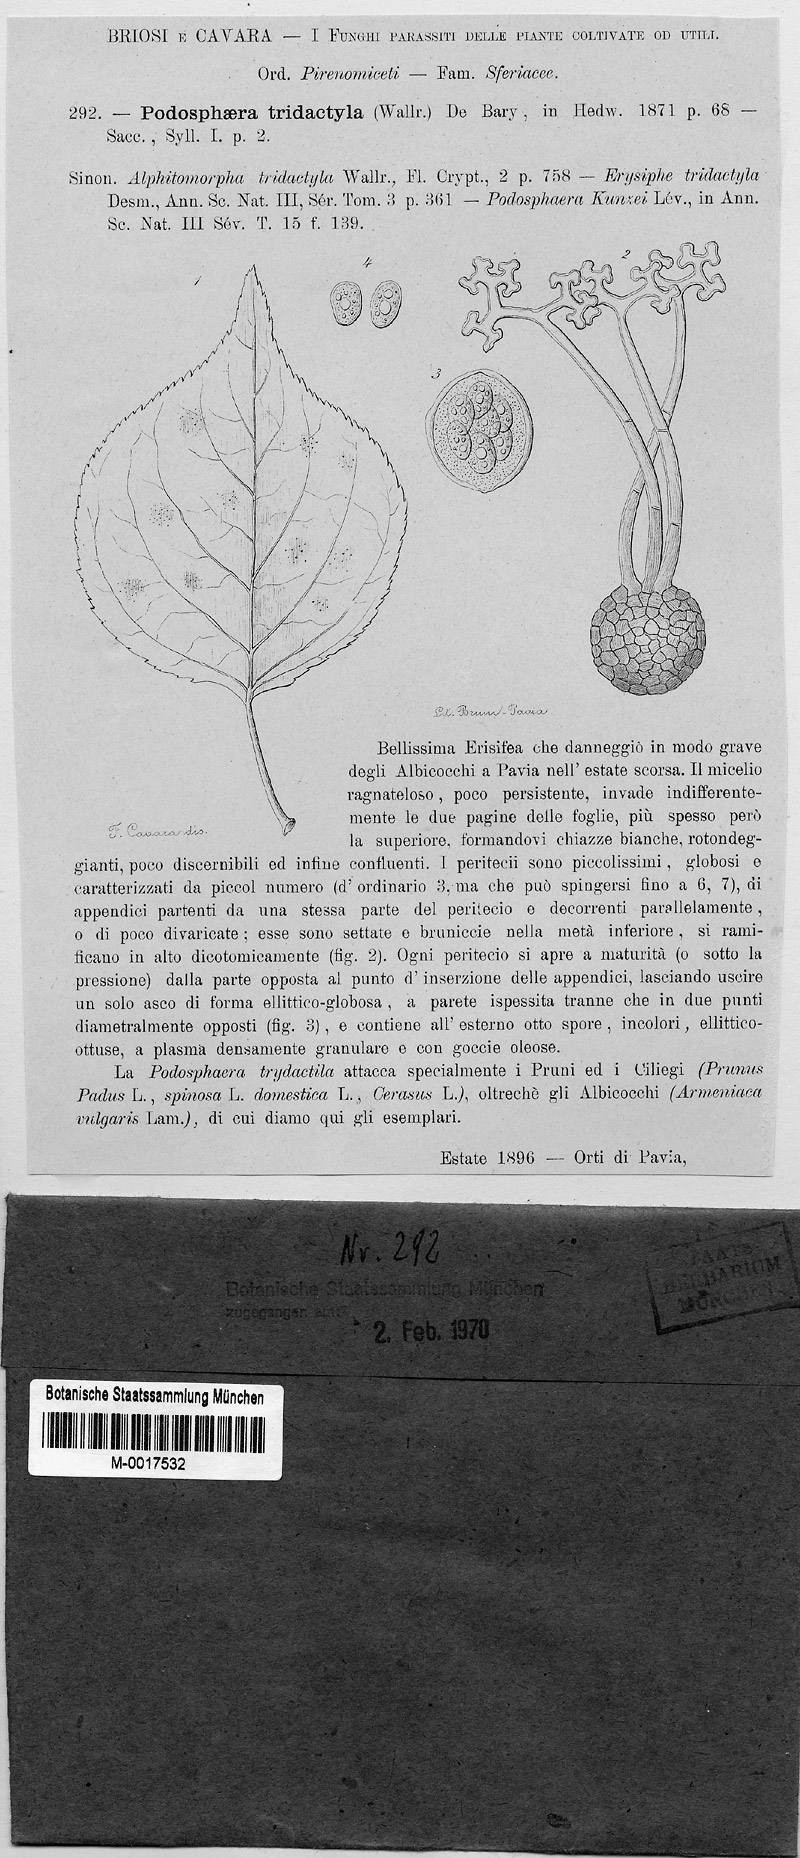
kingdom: Fungi
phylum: Ascomycota
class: Leotiomycetes
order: Helotiales
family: Erysiphaceae
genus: Podosphaera
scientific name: Podosphaera tridactyla
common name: Plum mildew
